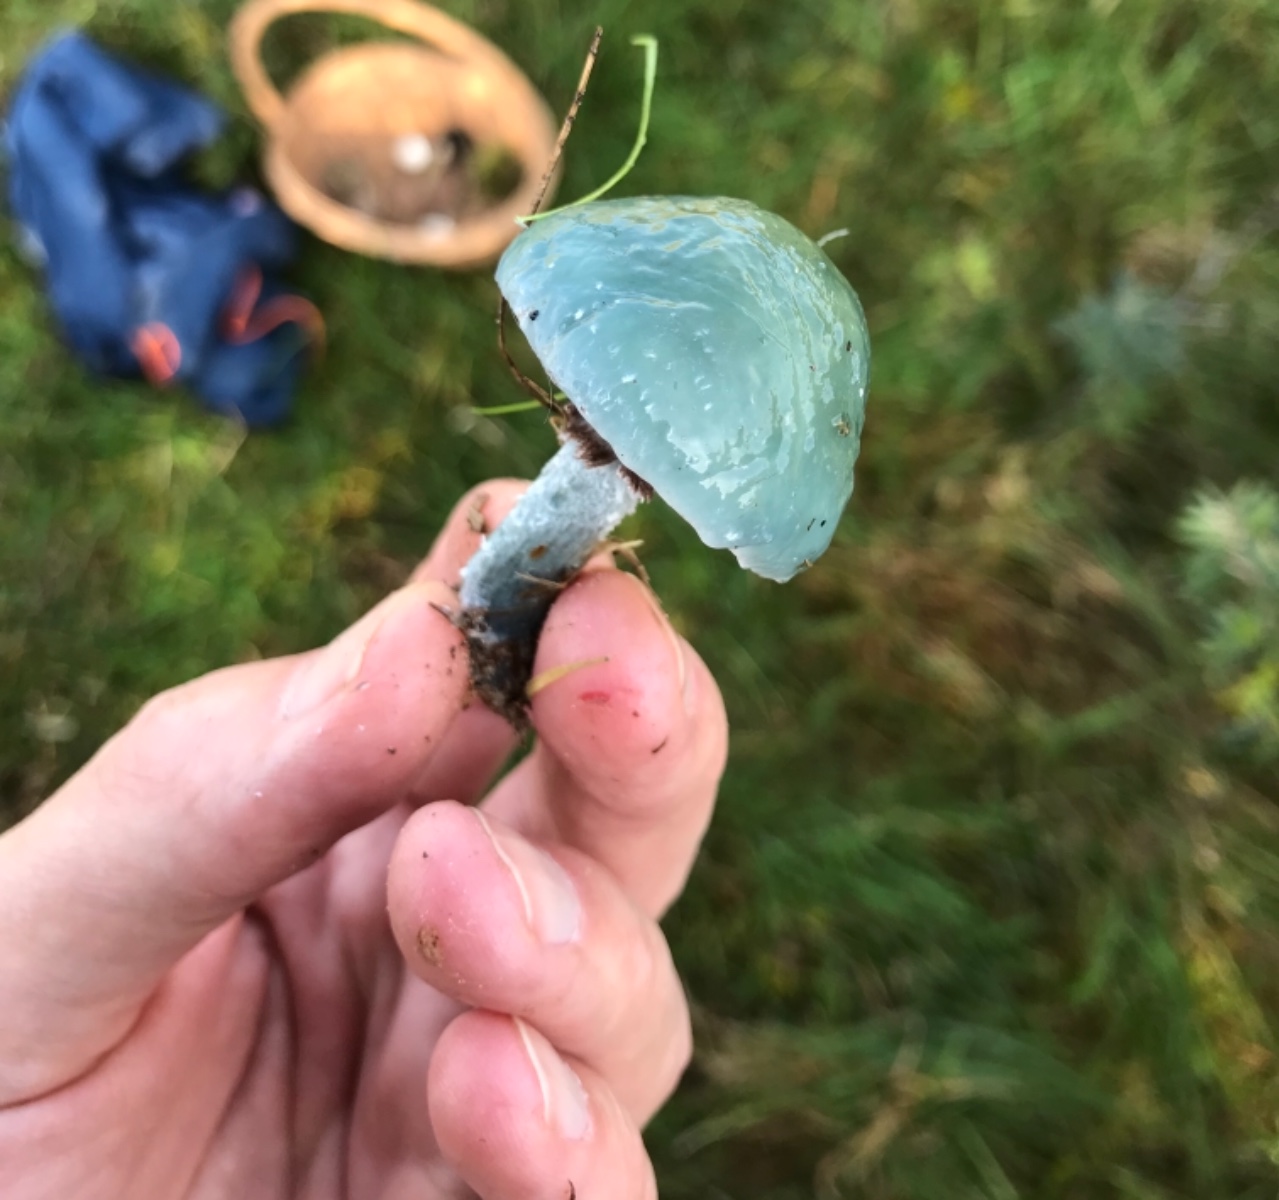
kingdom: Fungi
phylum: Basidiomycota
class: Agaricomycetes
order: Agaricales
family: Strophariaceae
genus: Stropharia
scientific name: Stropharia cyanea
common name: blågrøn bredblad
